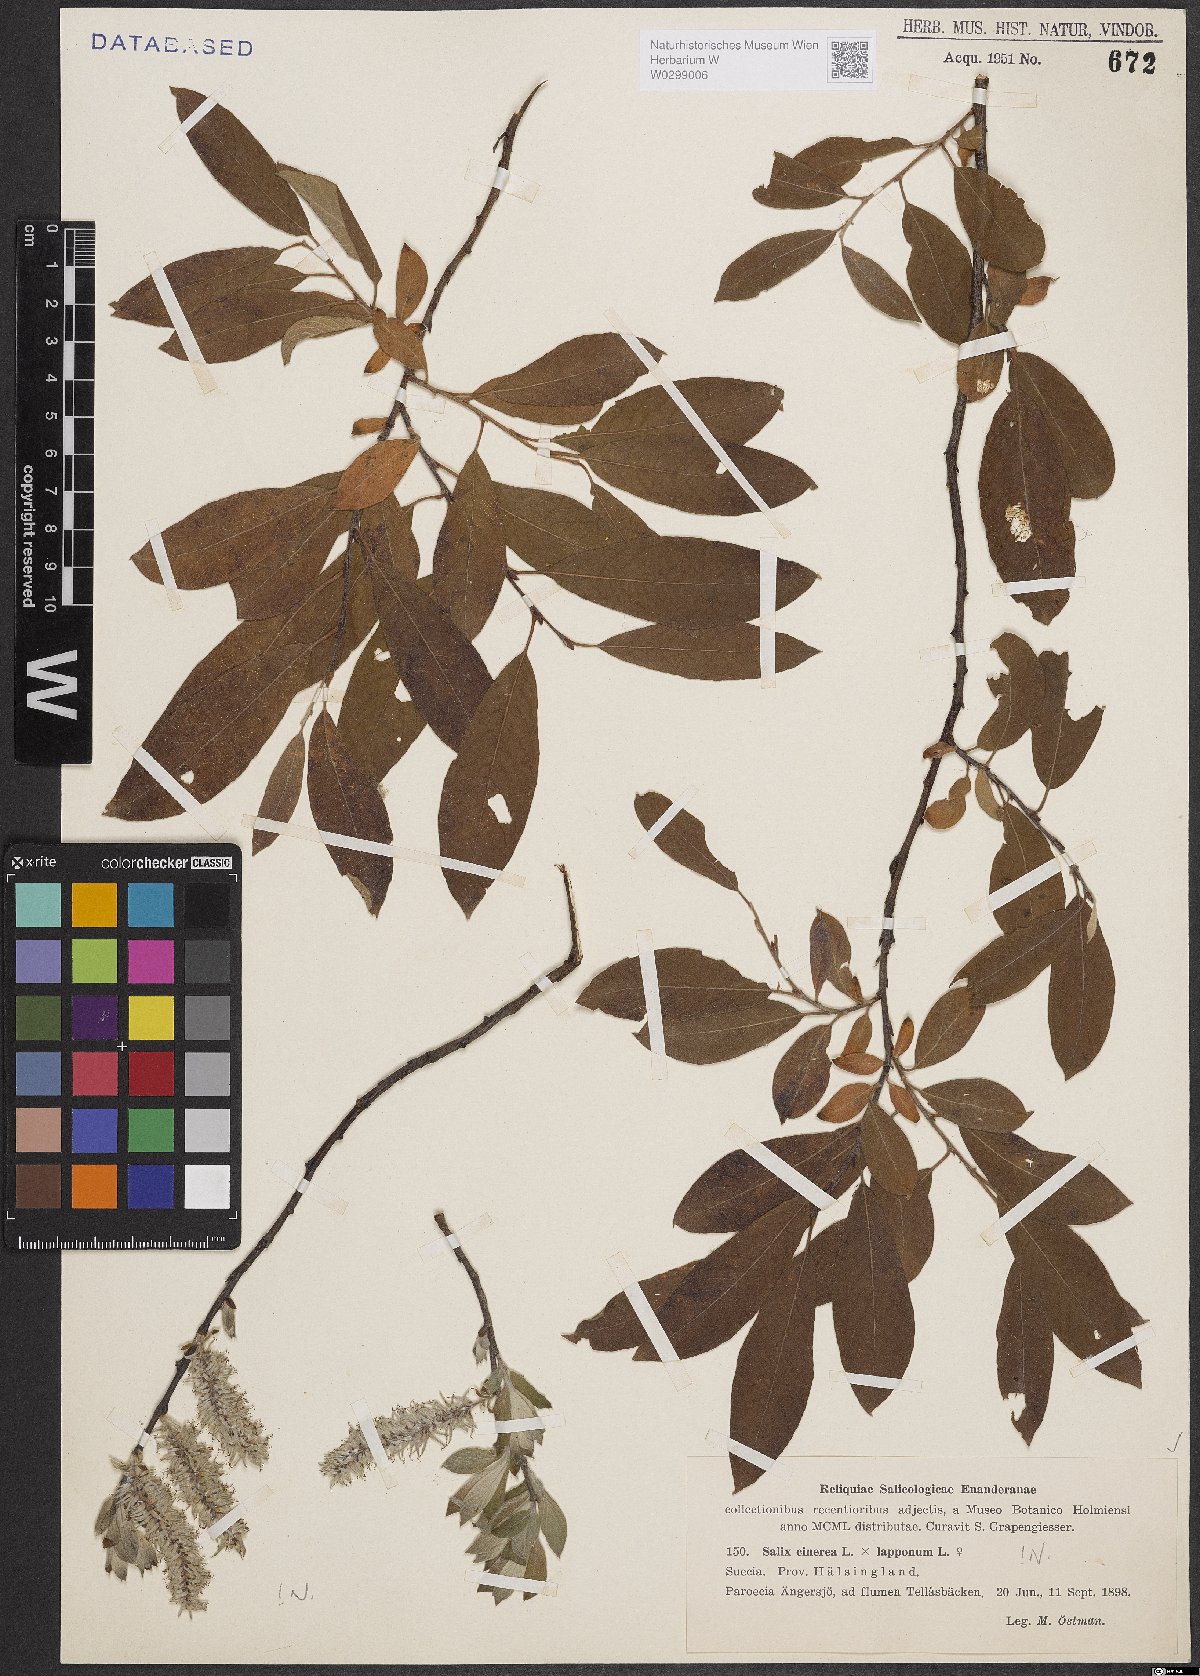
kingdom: Plantae
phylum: Tracheophyta
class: Magnoliopsida
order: Malpighiales
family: Salicaceae
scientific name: Salicaceae
